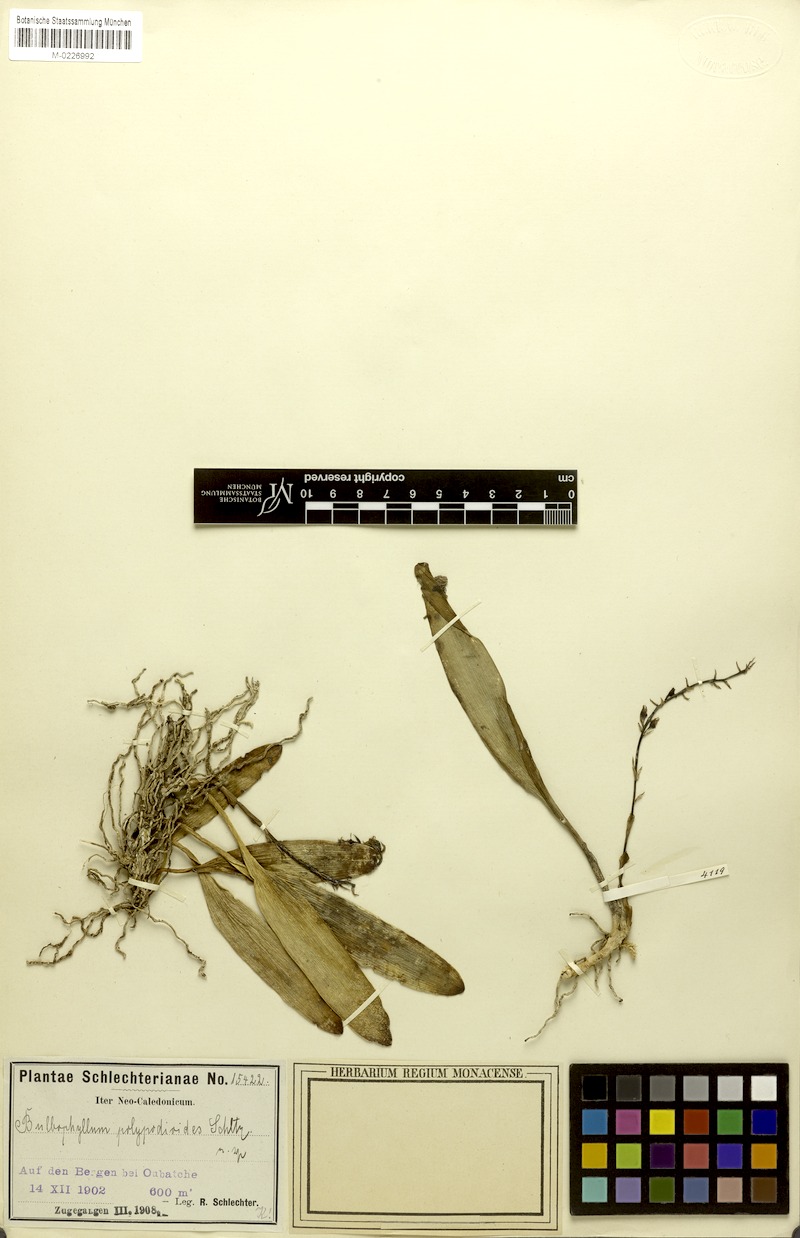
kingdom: Plantae
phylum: Tracheophyta
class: Liliopsida
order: Asparagales
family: Orchidaceae
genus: Bulbophyllum
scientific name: Bulbophyllum apodum
